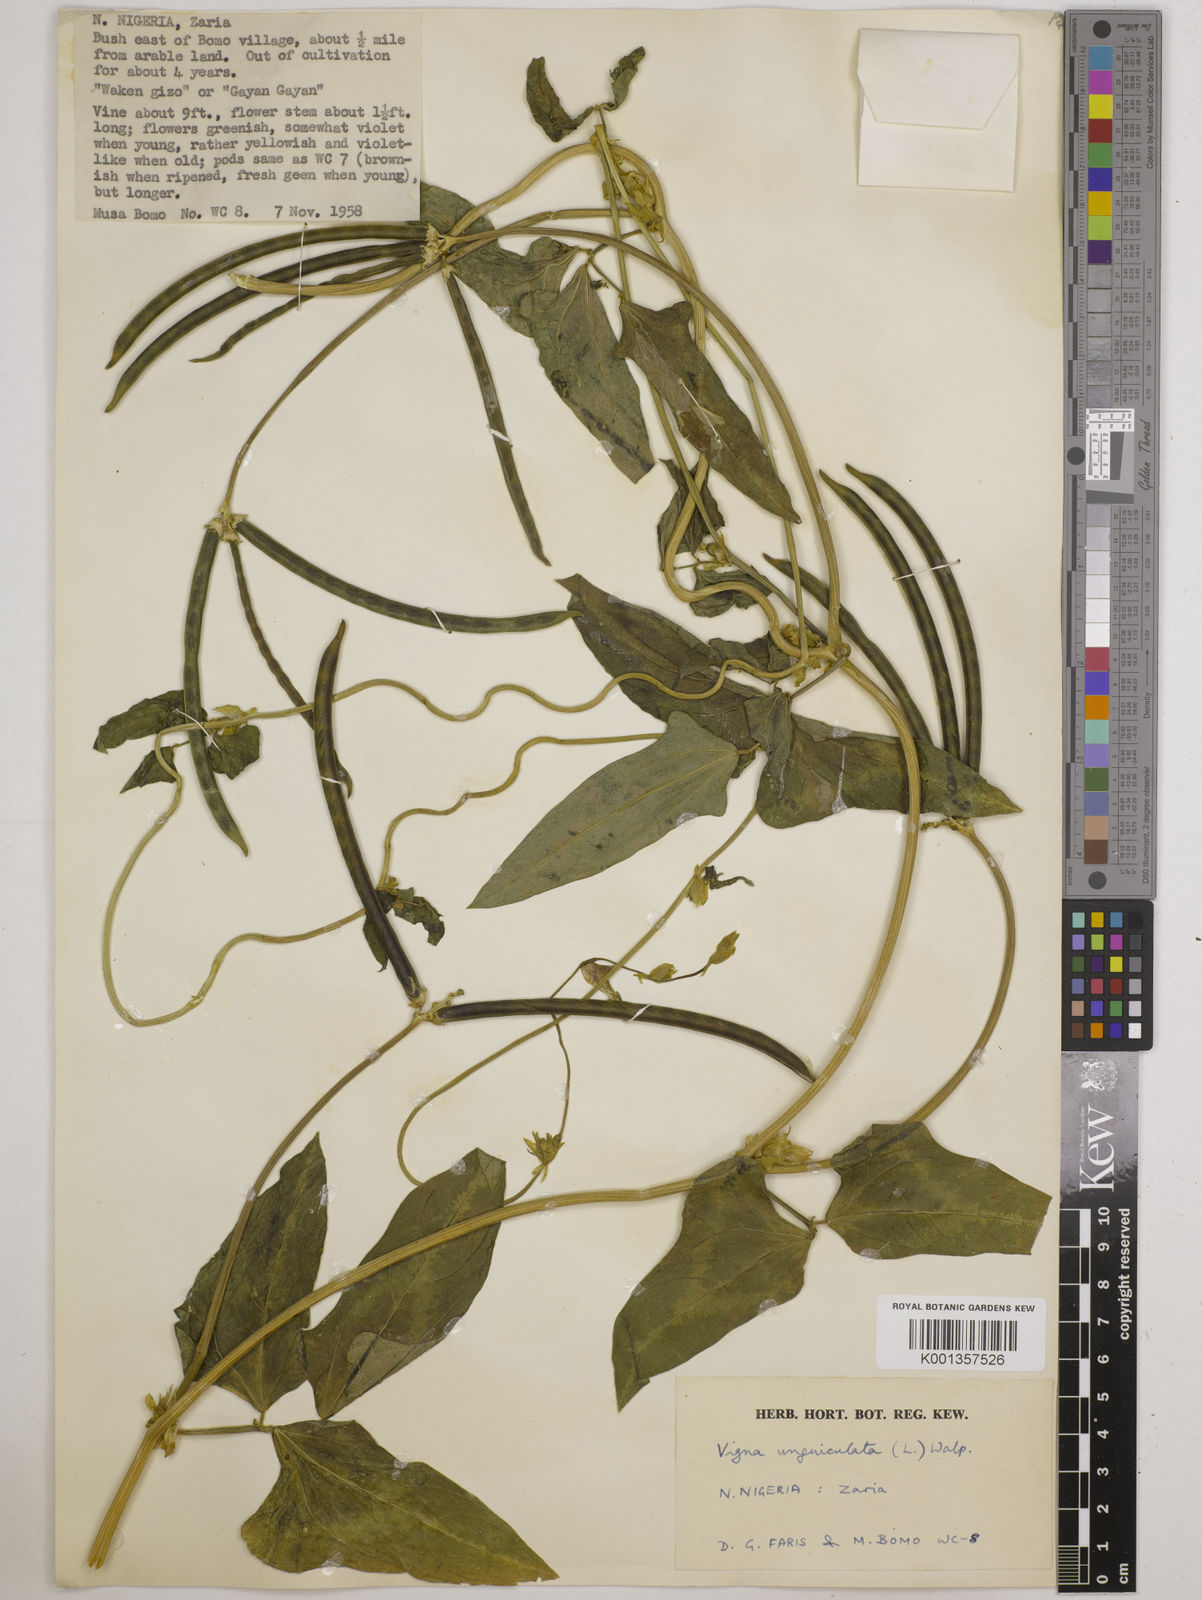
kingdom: Plantae
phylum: Tracheophyta
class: Magnoliopsida
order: Fabales
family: Fabaceae
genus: Vigna
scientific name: Vigna
